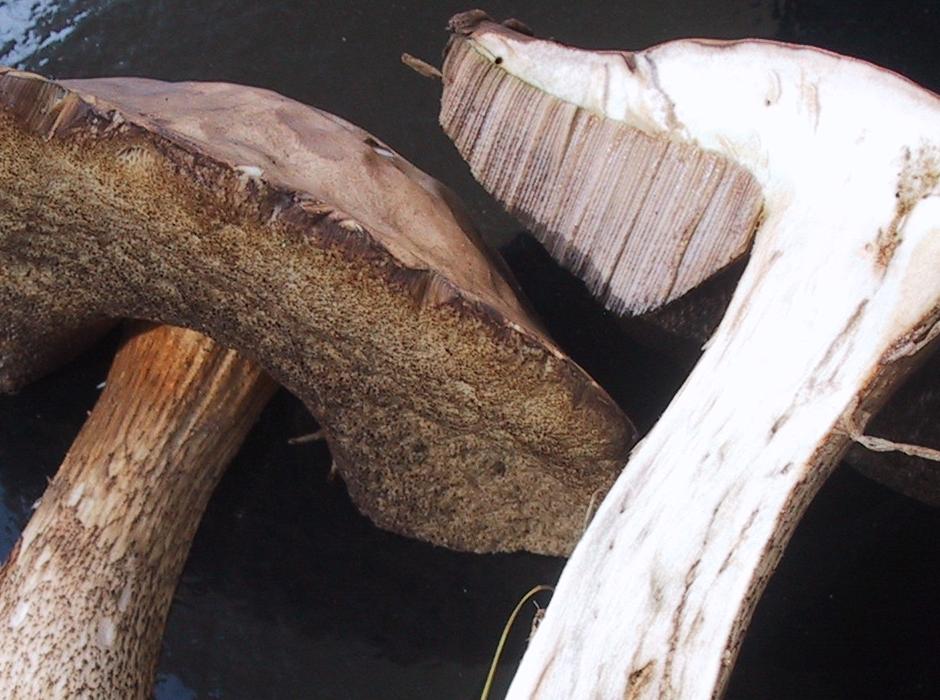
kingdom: Fungi
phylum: Basidiomycota
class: Agaricomycetes
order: Boletales
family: Boletaceae
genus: Leccinum
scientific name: Leccinum scabrum
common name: brun skælrørhat
